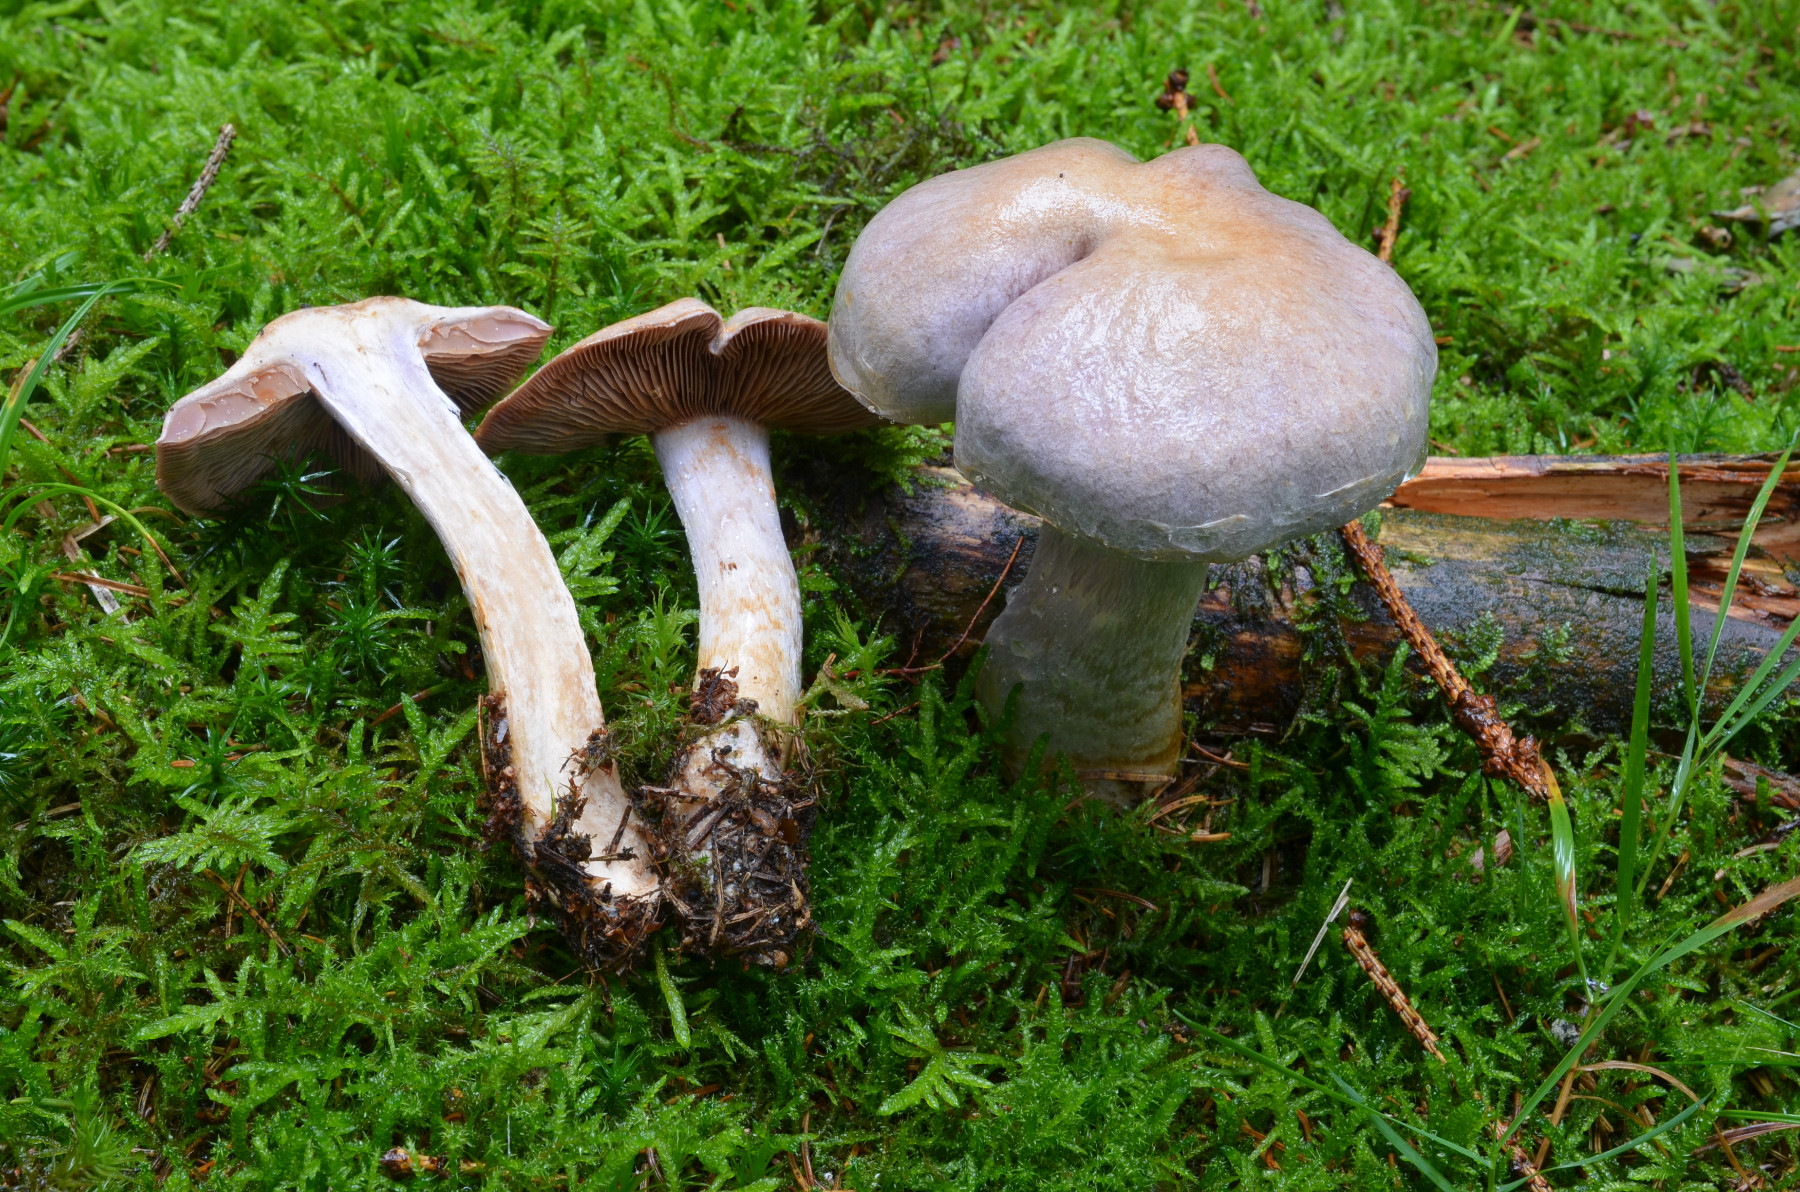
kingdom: Fungi
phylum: Basidiomycota
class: Agaricomycetes
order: Agaricales
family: Cortinariaceae
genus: Cortinarius
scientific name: Cortinarius camphoratus
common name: stinkende slørhat
